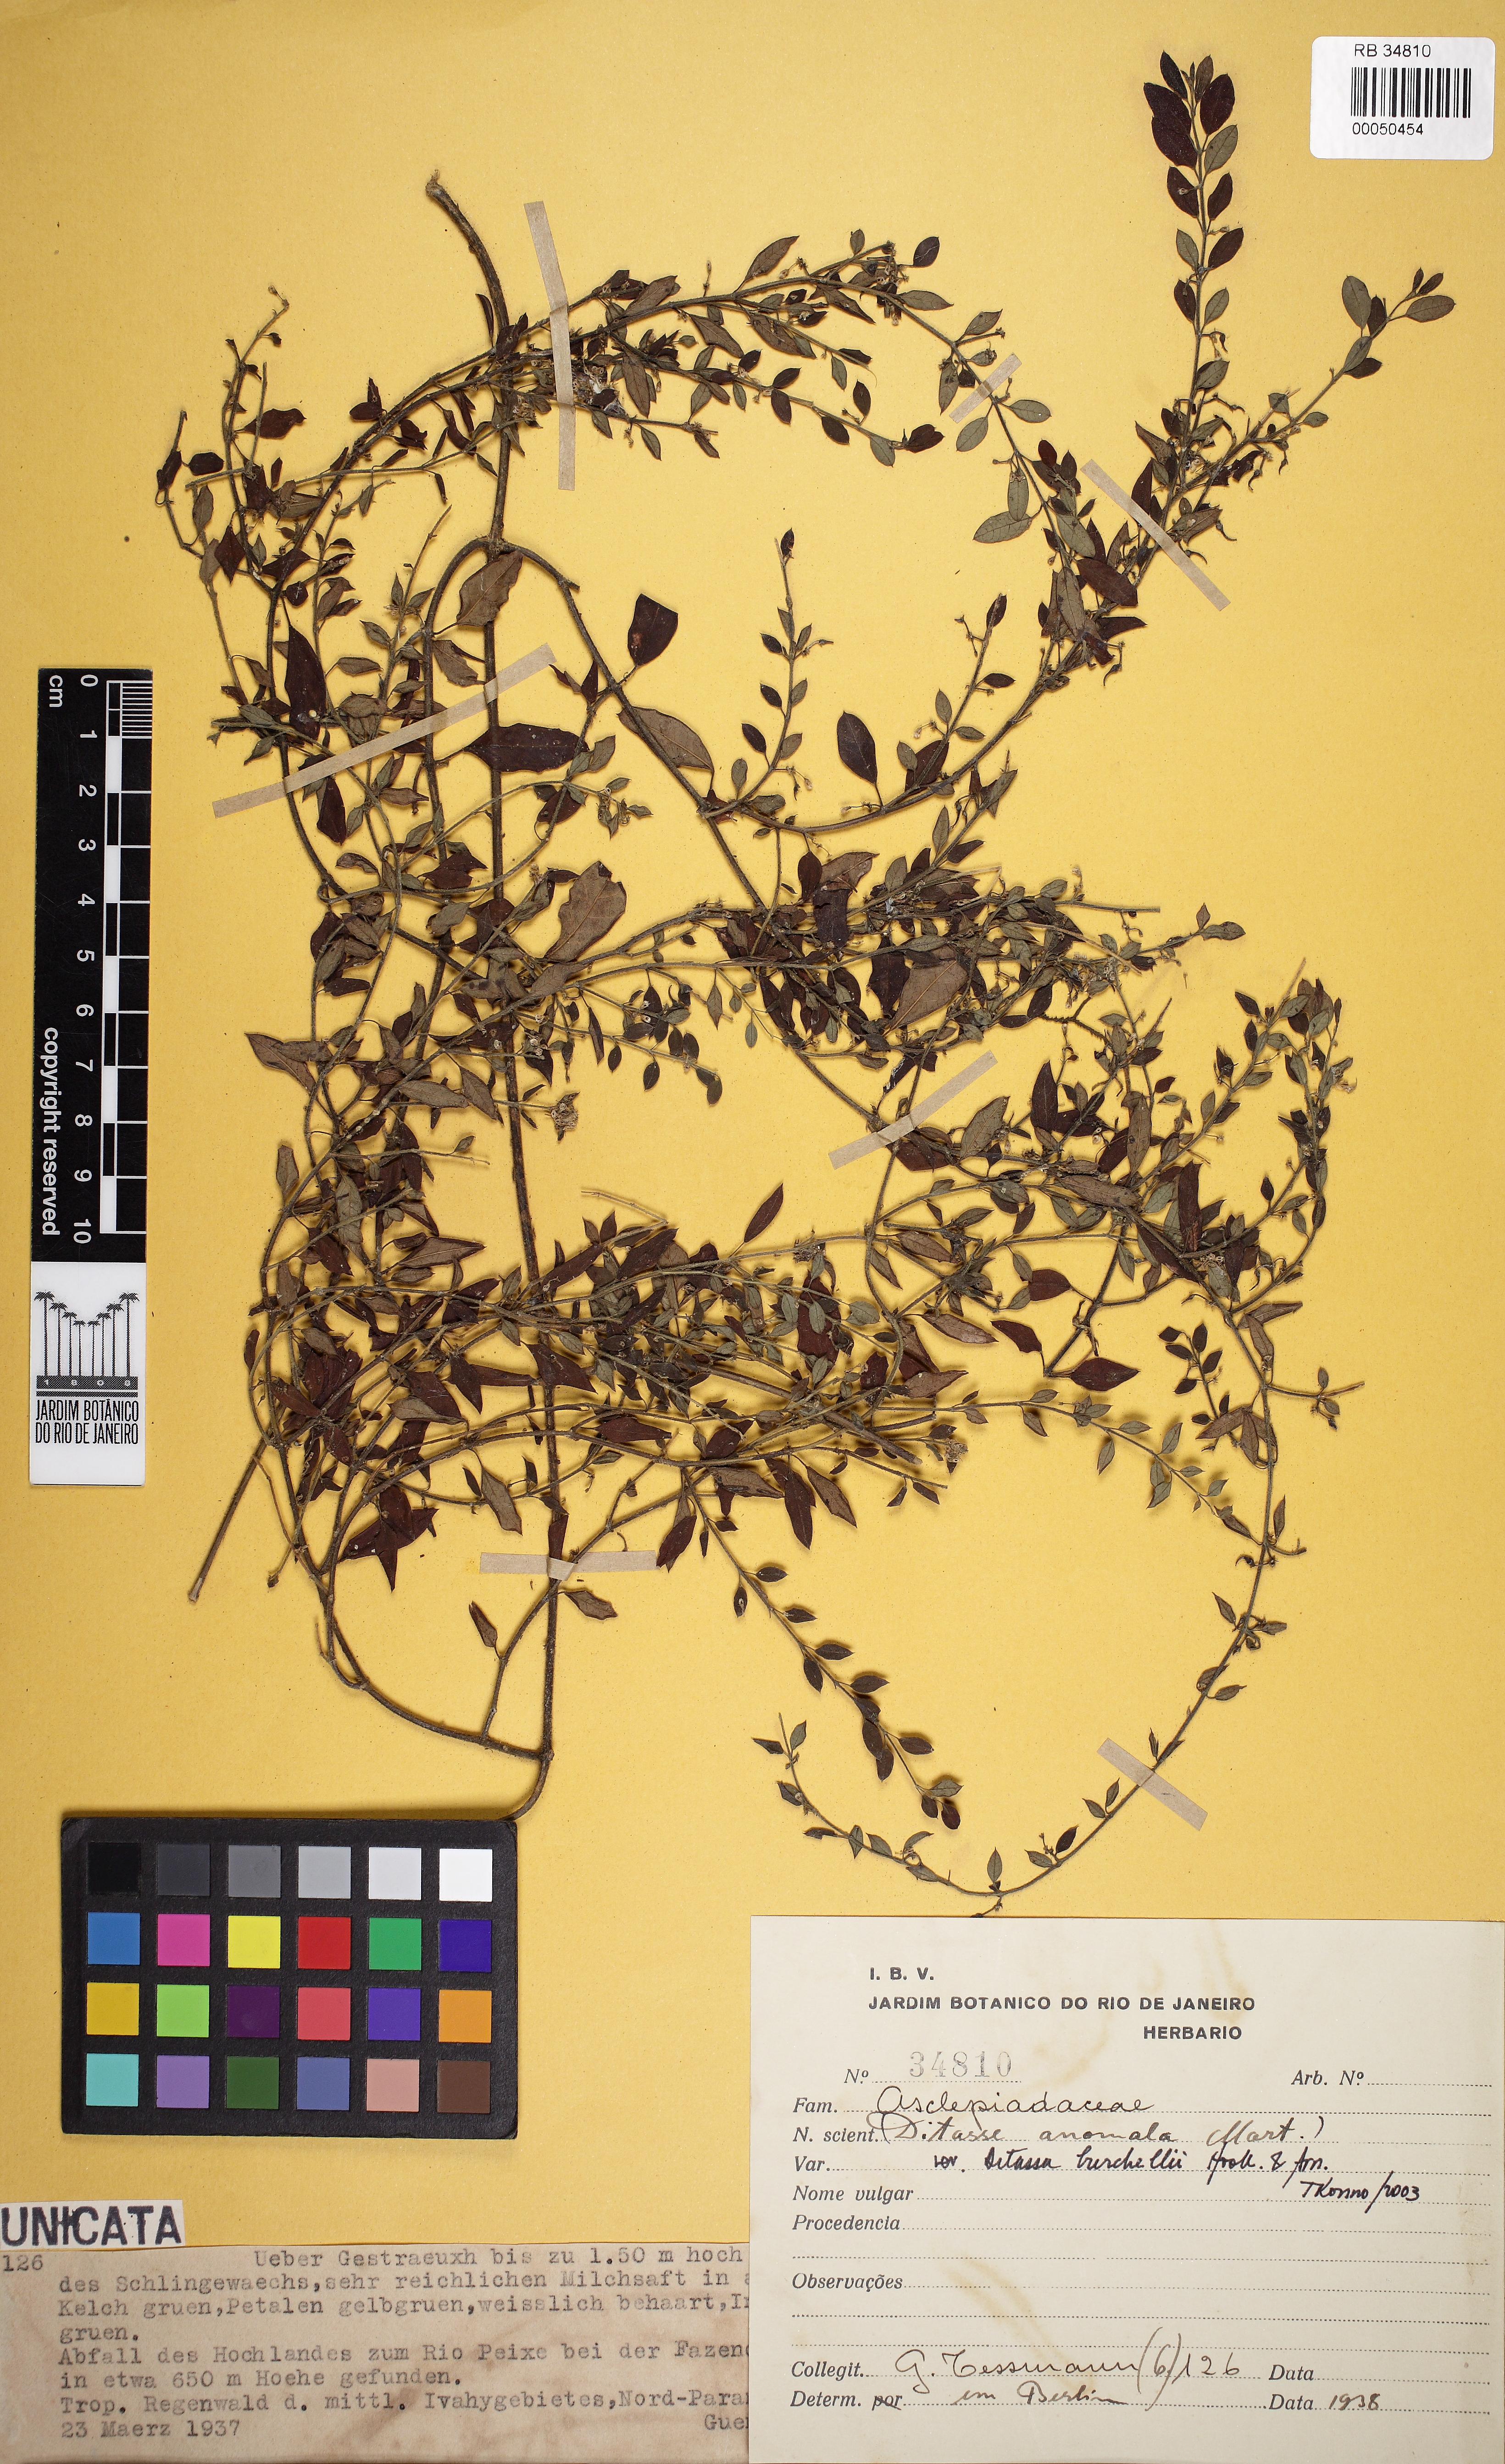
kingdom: Plantae
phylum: Tracheophyta
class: Magnoliopsida
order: Gentianales
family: Apocynaceae
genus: Metastelma
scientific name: Metastelma burchellii
